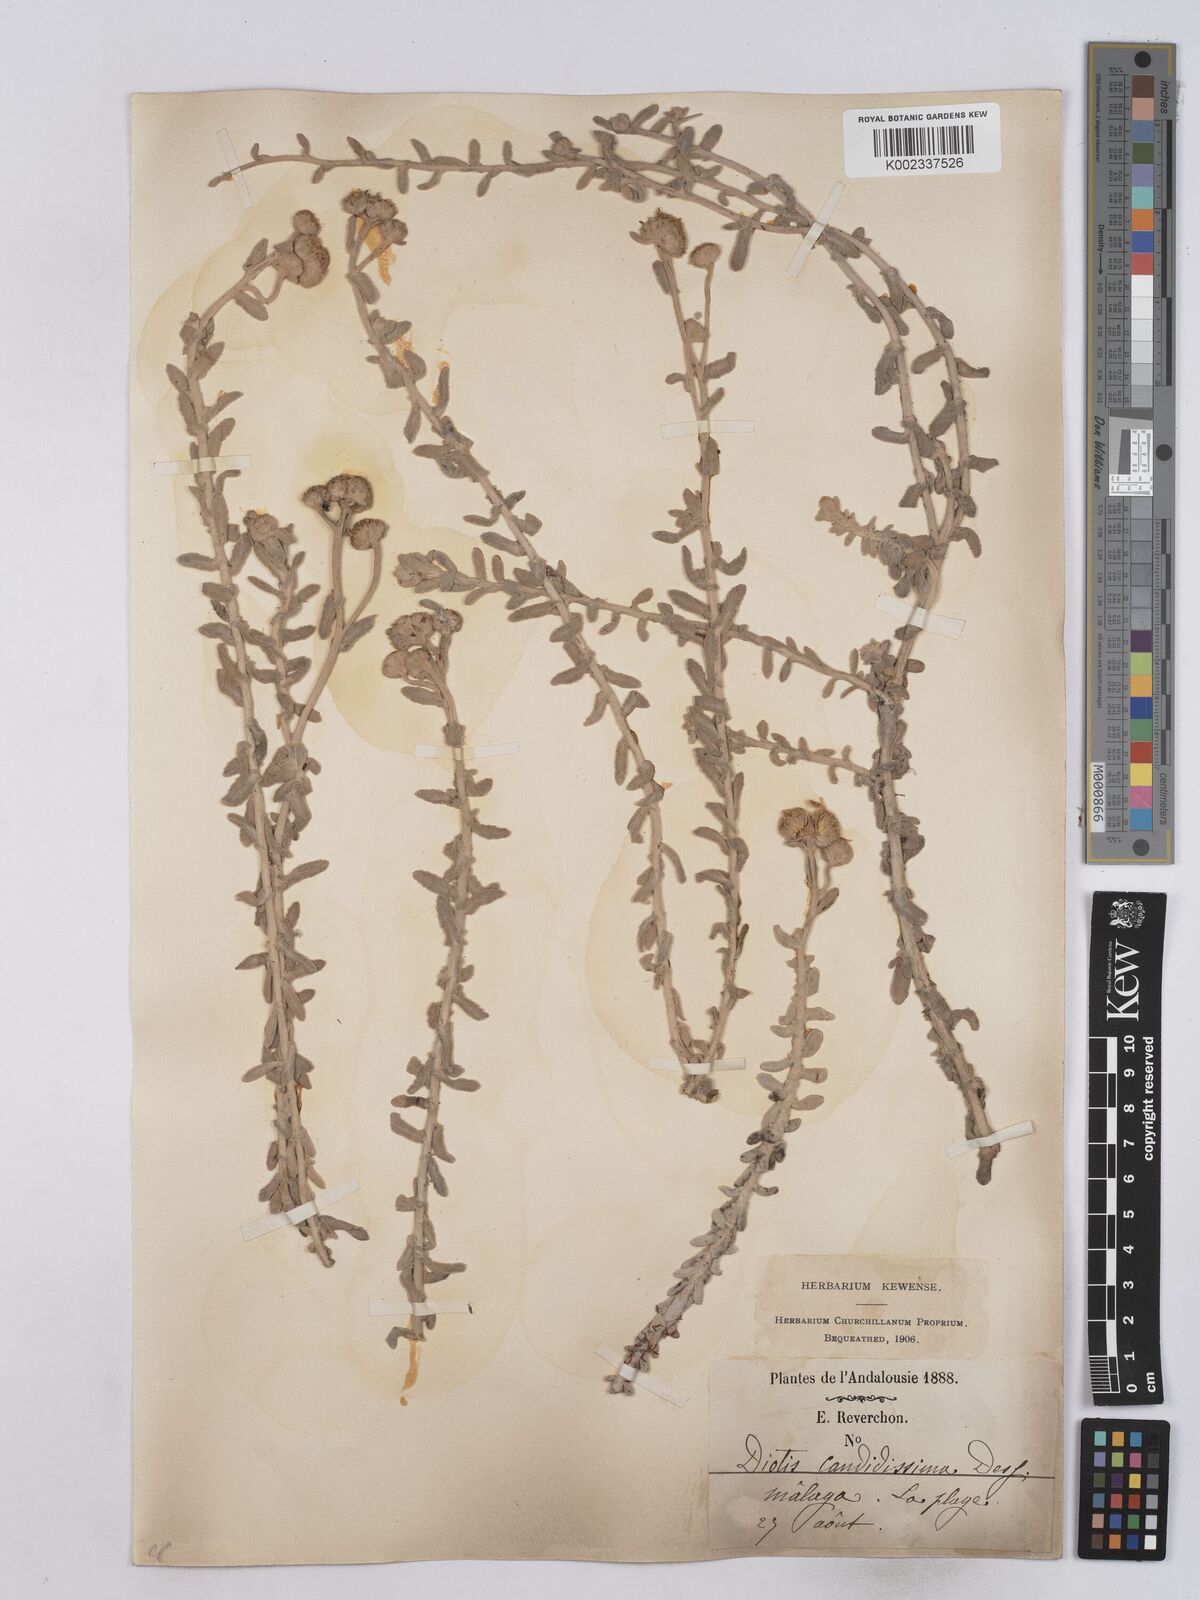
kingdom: Plantae
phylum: Tracheophyta
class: Magnoliopsida
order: Asterales
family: Asteraceae
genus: Achillea
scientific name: Achillea maritima
